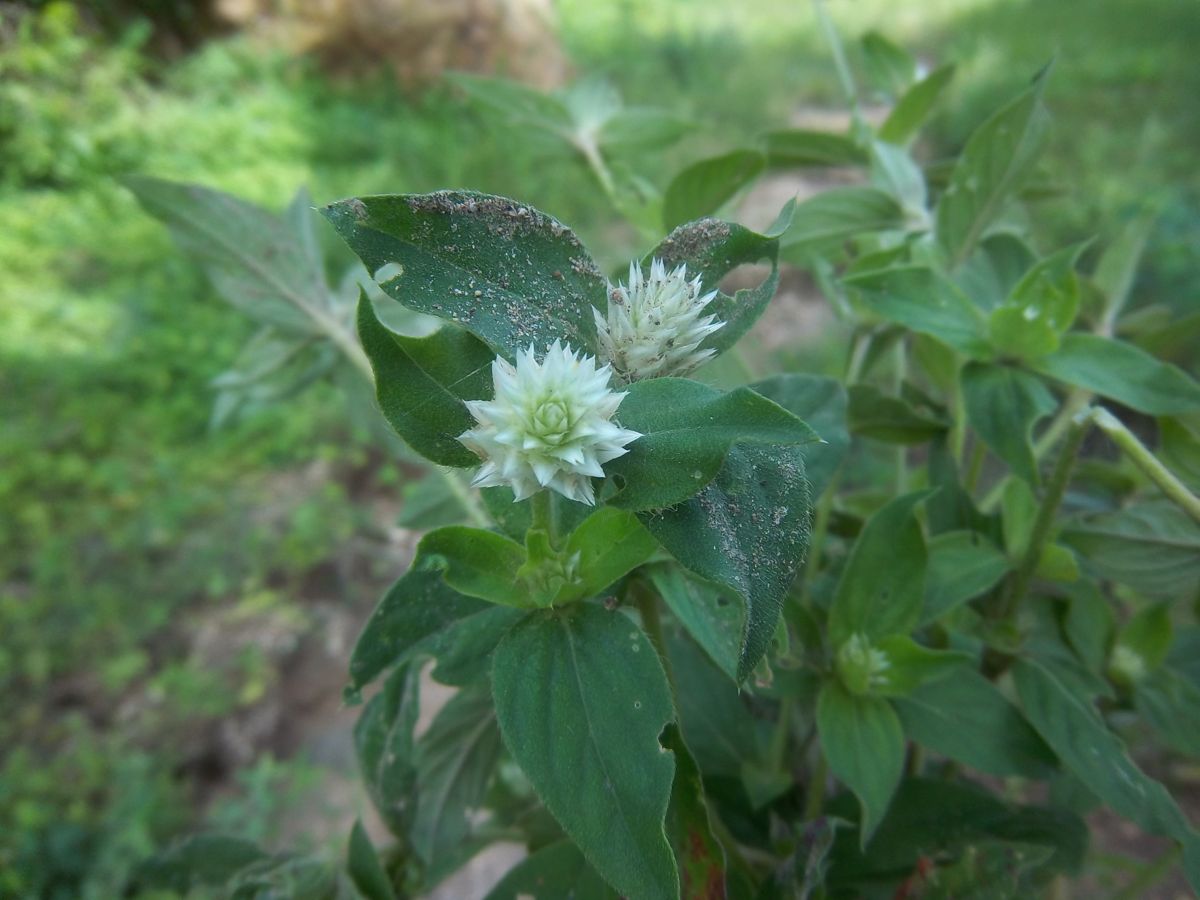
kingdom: Plantae
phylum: Tracheophyta
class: Magnoliopsida
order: Caryophyllales
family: Amaranthaceae
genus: Gomphrena
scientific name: Gomphrena serrata
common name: Arrasa con todo
